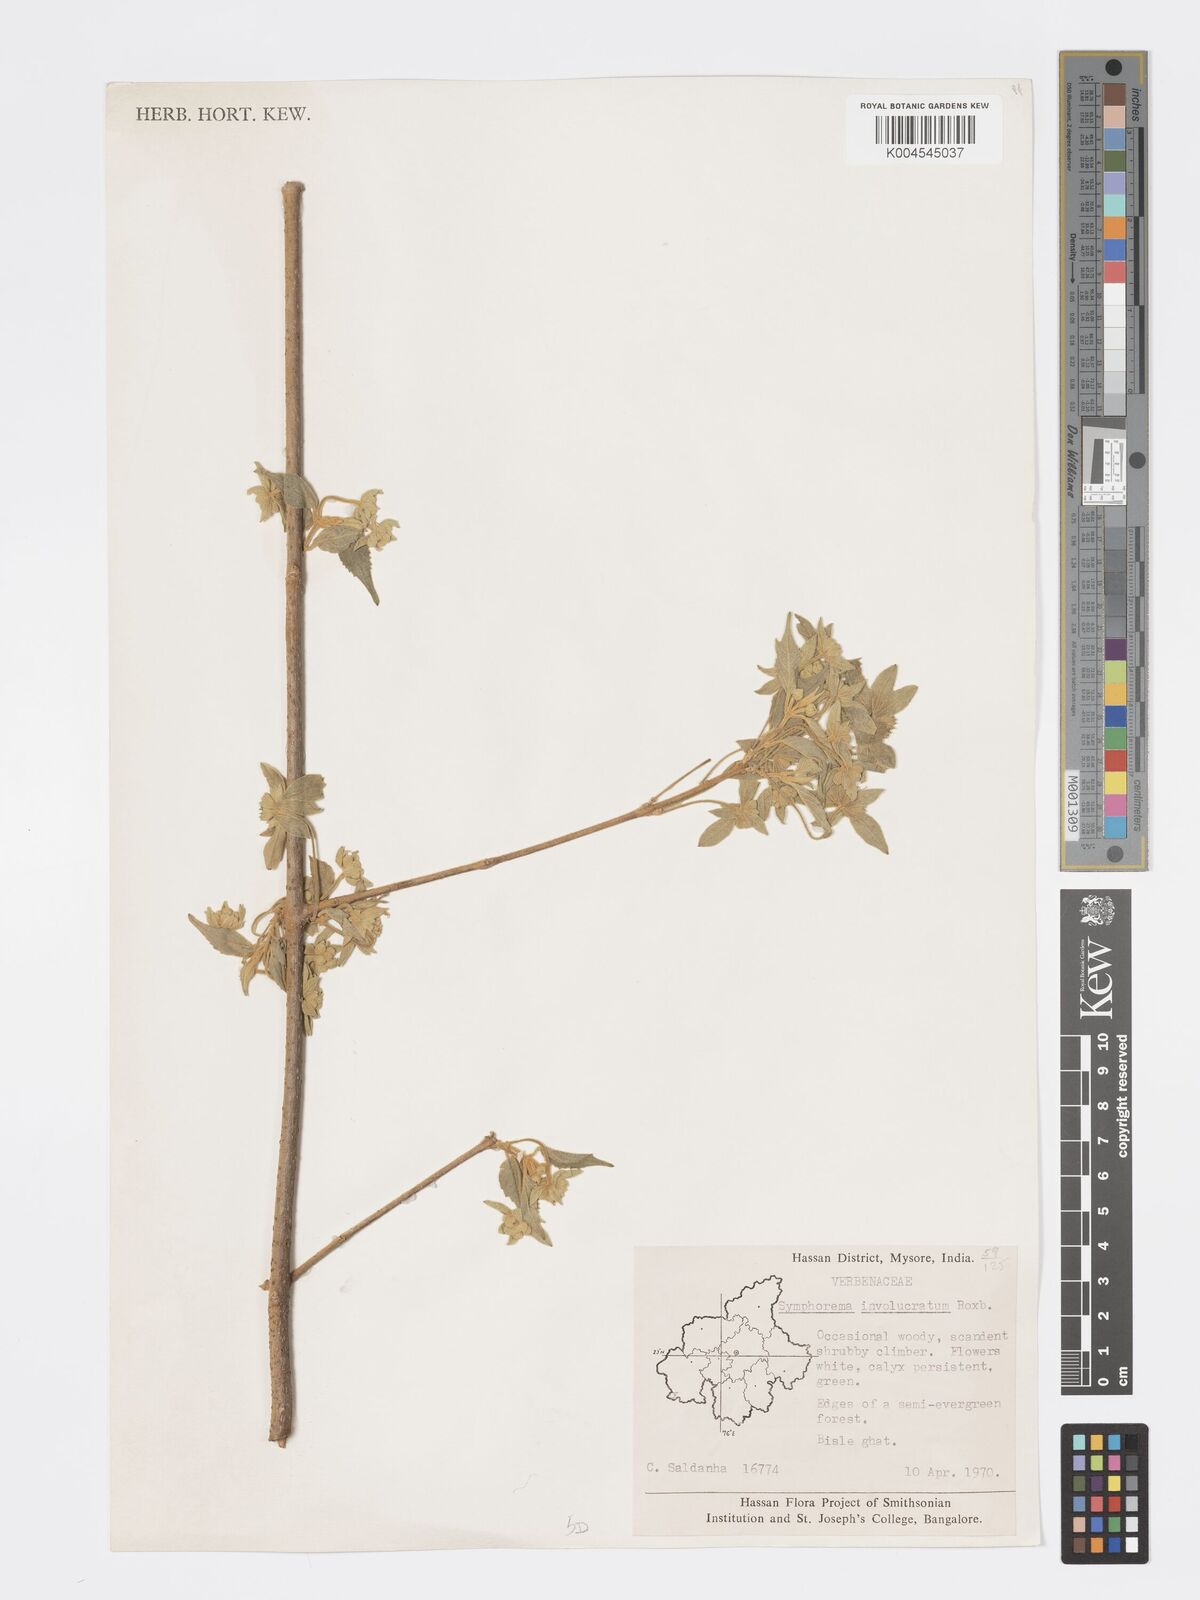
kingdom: Plantae
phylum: Tracheophyta
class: Magnoliopsida
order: Lamiales
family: Lamiaceae
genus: Symphorema
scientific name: Symphorema involucratum
